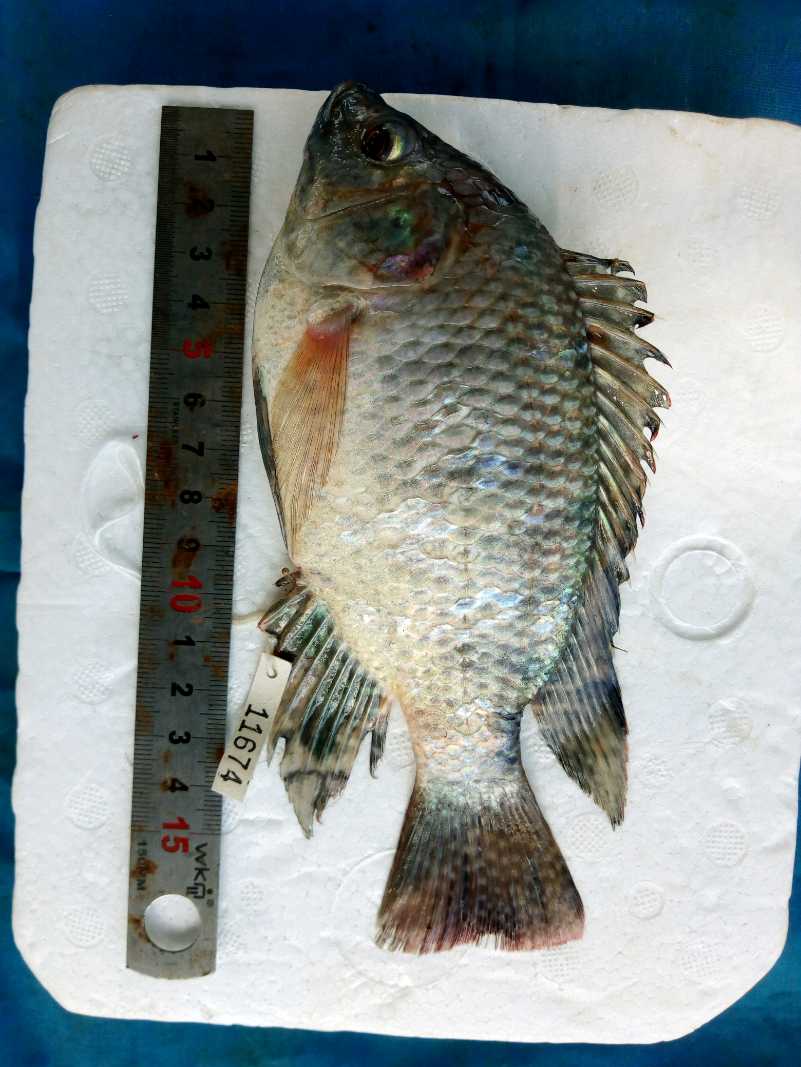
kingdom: Animalia
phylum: Chordata
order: Perciformes
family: Cichlidae
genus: Oreochromis
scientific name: Oreochromis spilurus
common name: Sabaki tilapia
